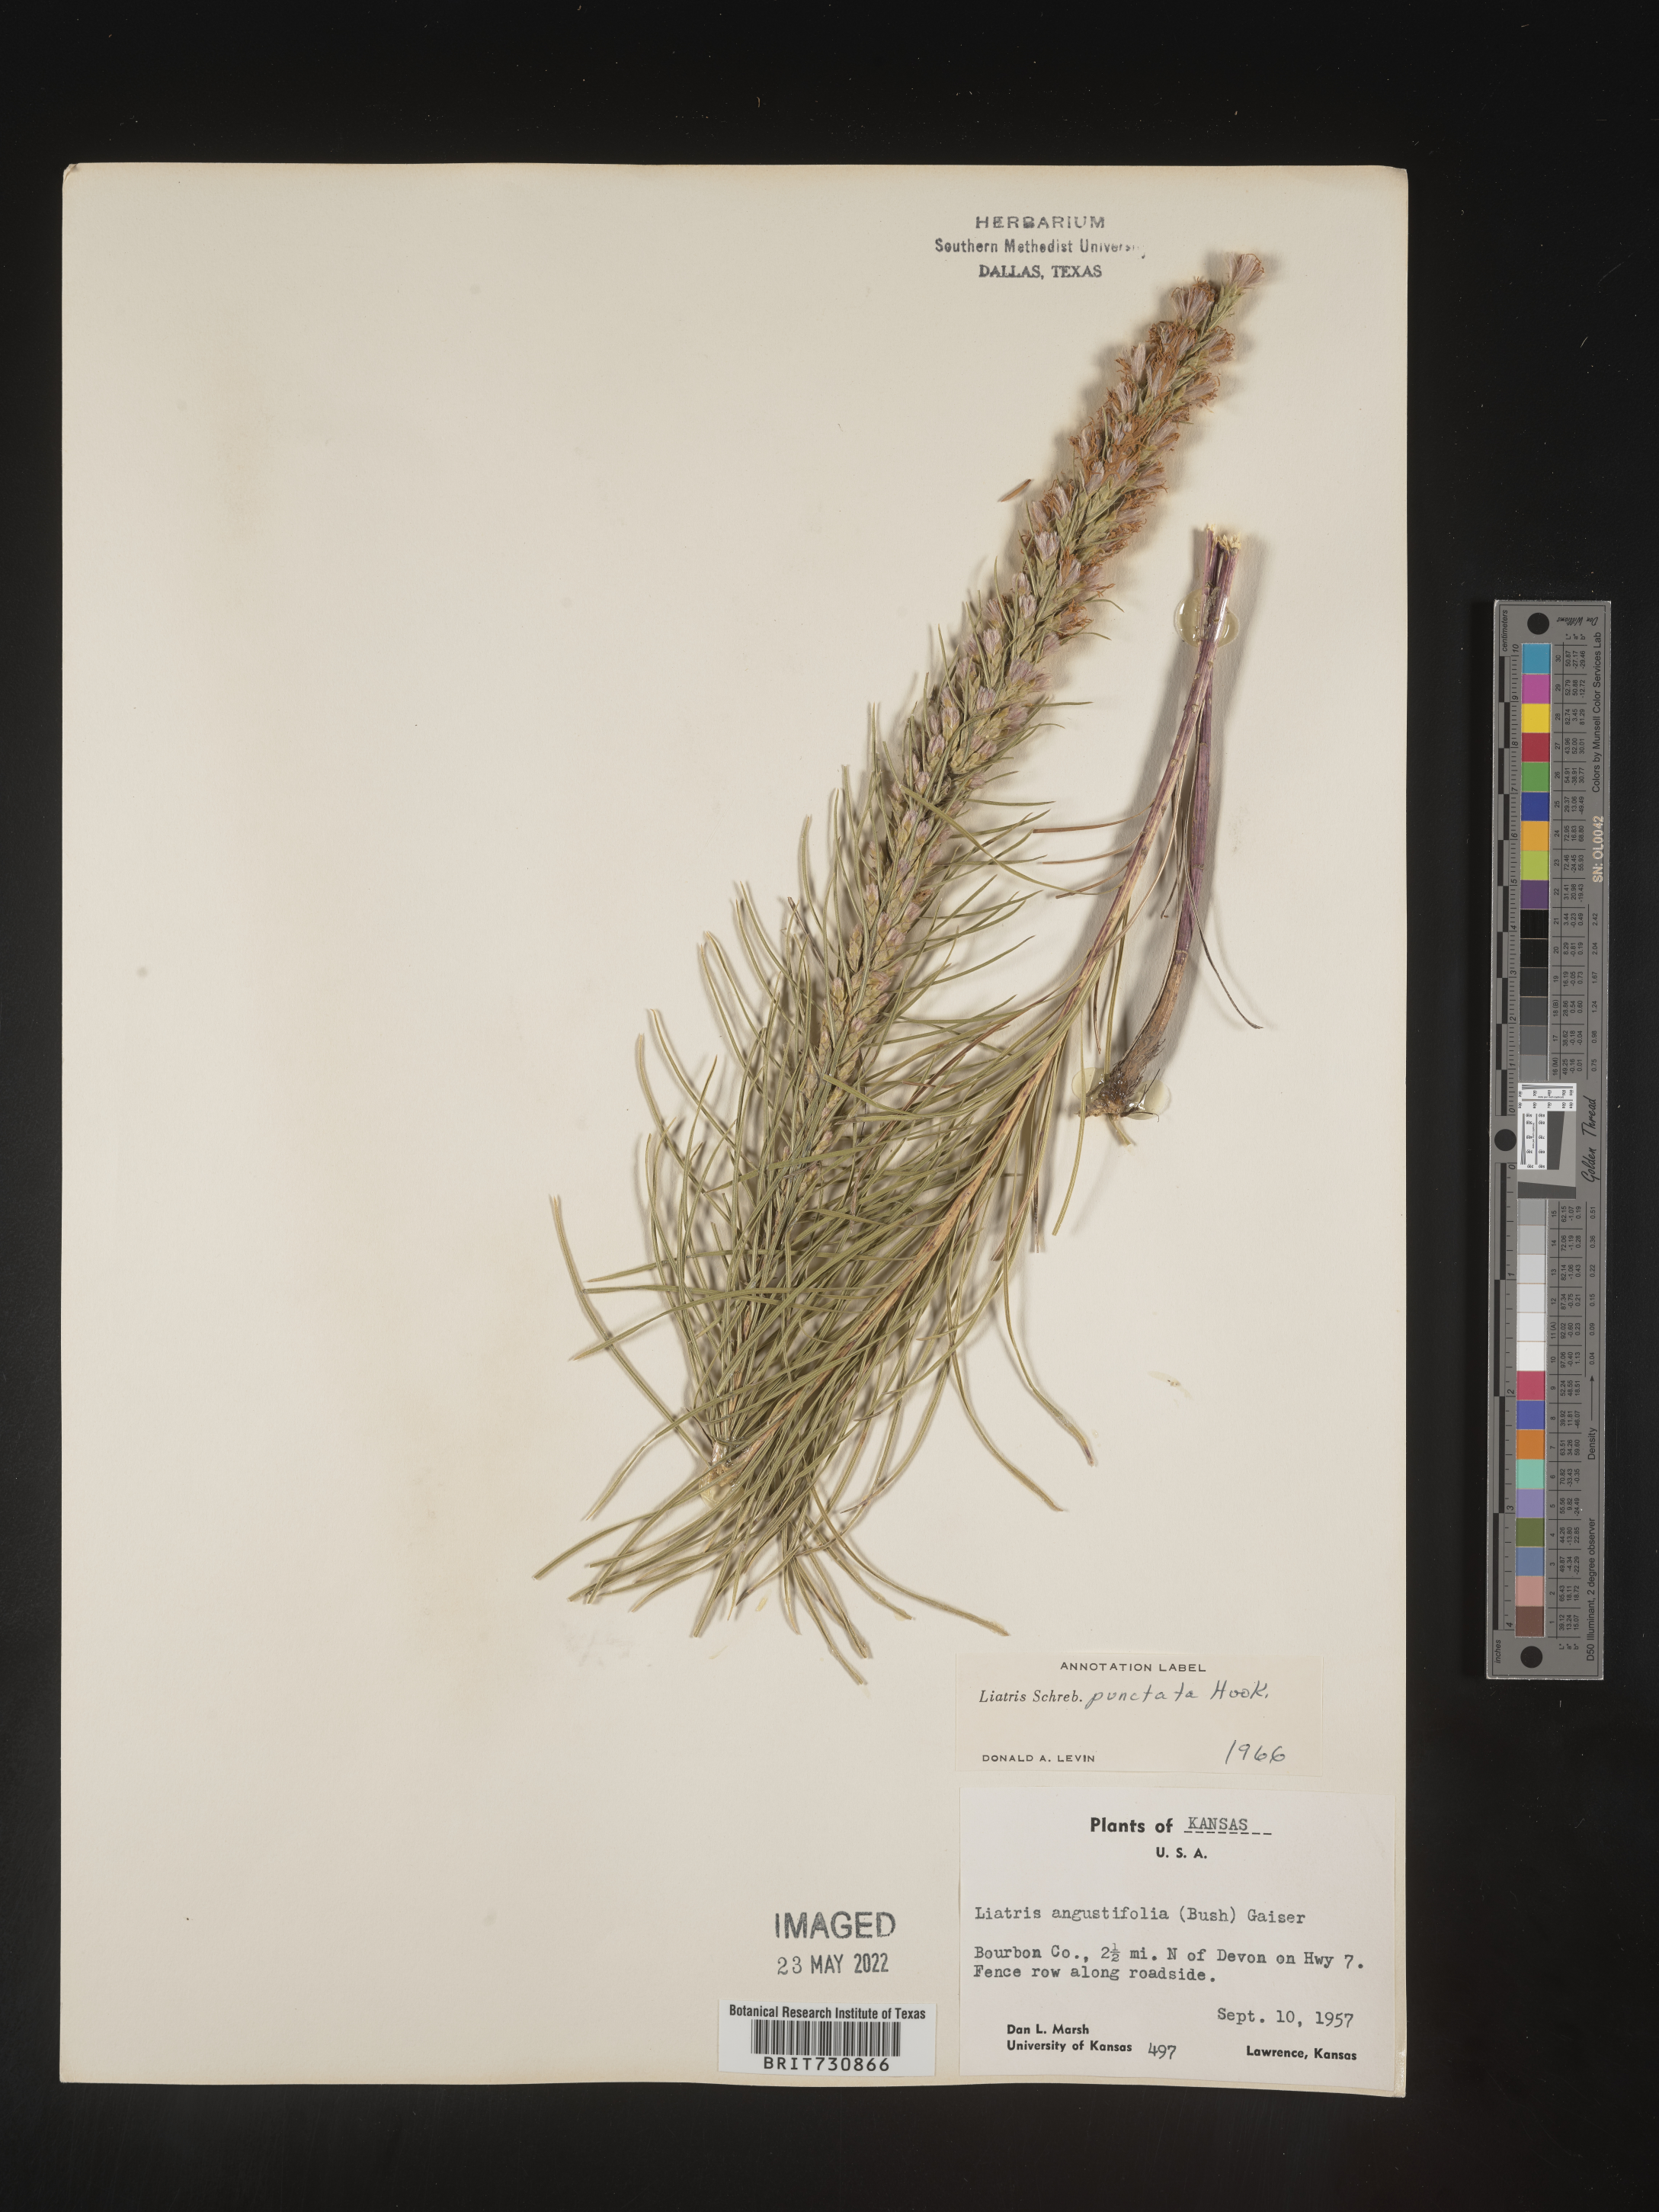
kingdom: Plantae
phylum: Tracheophyta
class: Magnoliopsida
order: Asterales
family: Asteraceae
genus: Liatris
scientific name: Liatris punctata
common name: Dotted gayfeather
